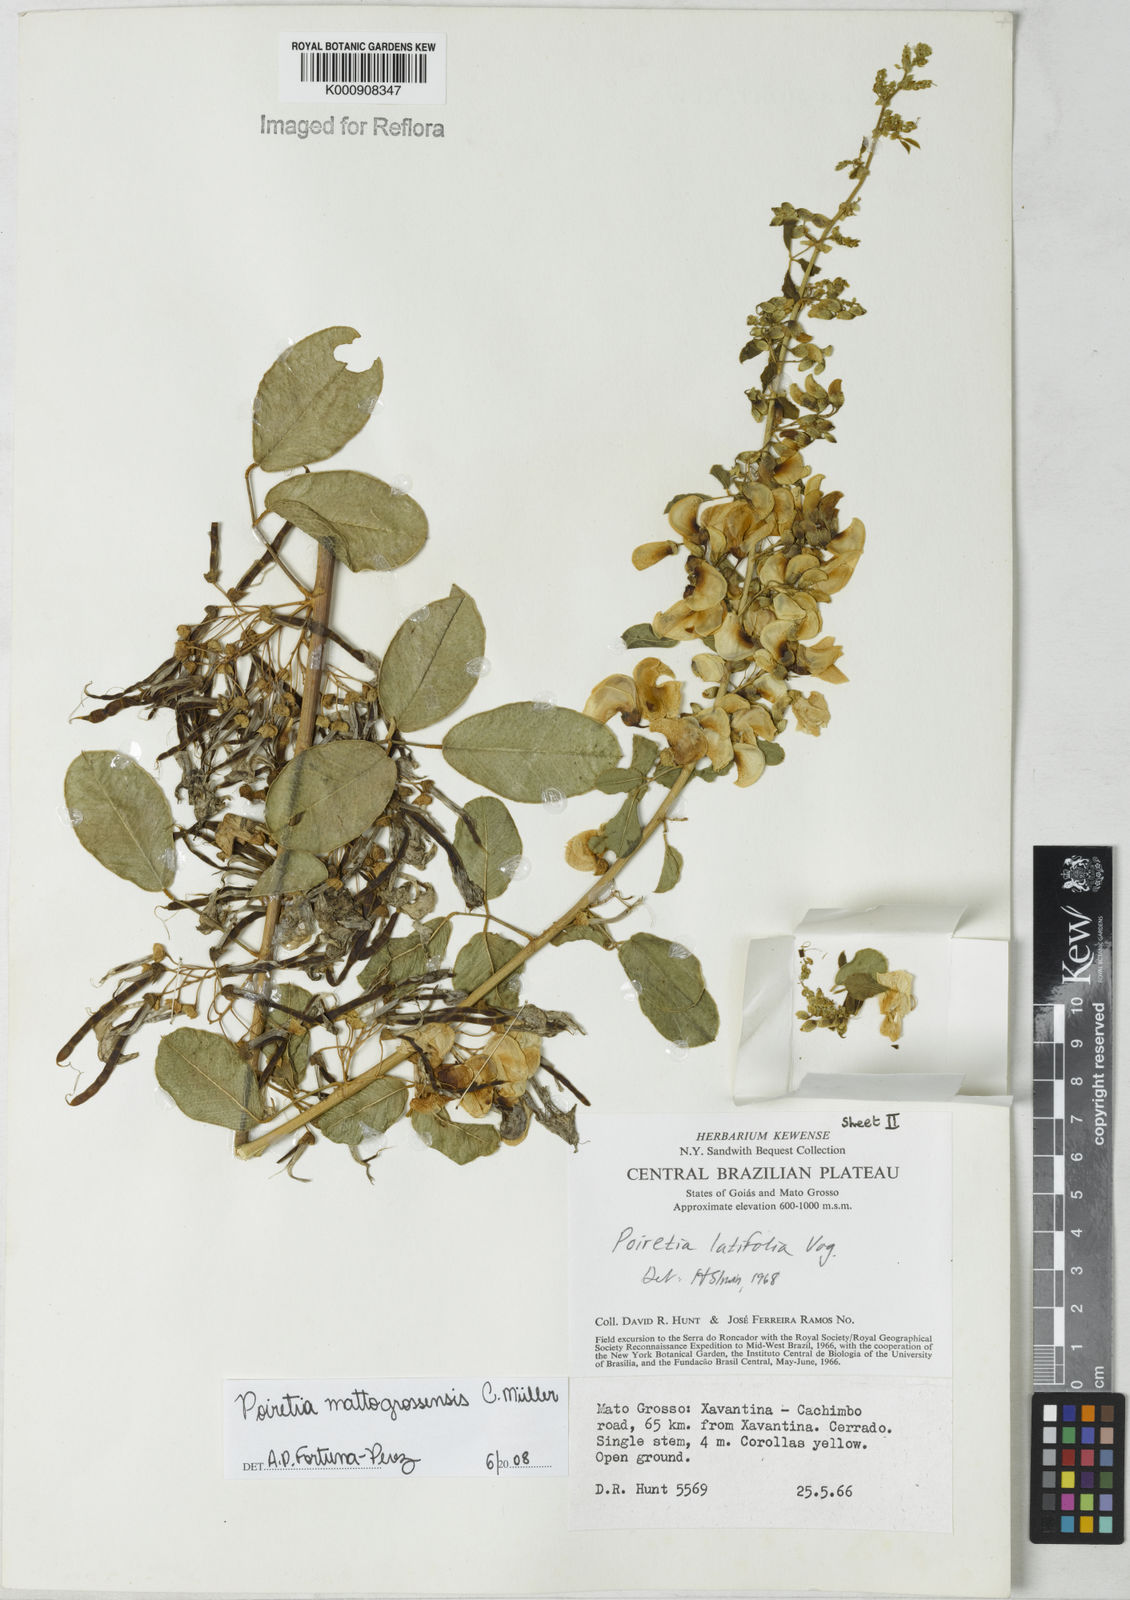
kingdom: Plantae
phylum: Tracheophyta
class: Magnoliopsida
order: Fabales
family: Fabaceae
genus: Poiretia
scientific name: Poiretia mattogrossensis
